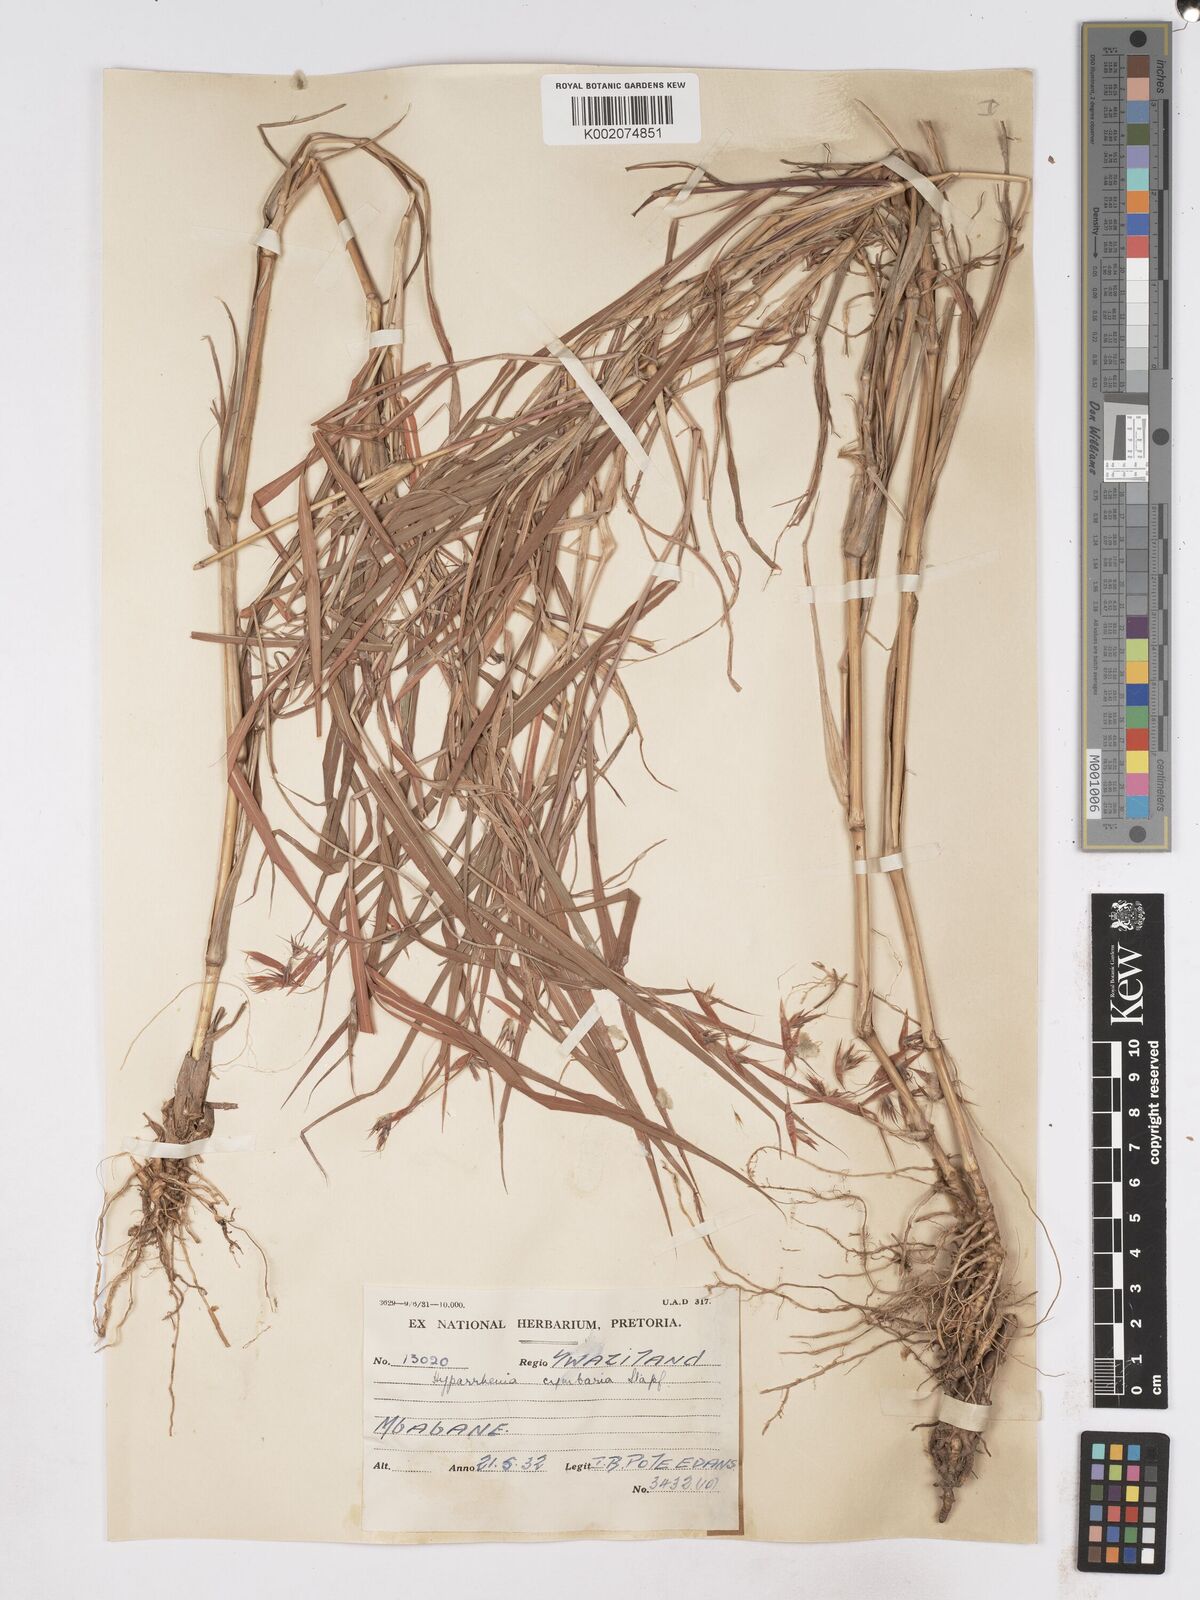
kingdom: Plantae
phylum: Tracheophyta
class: Liliopsida
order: Poales
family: Poaceae
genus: Hyparrhenia
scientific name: Hyparrhenia cymbaria
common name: Boat thatching grass
